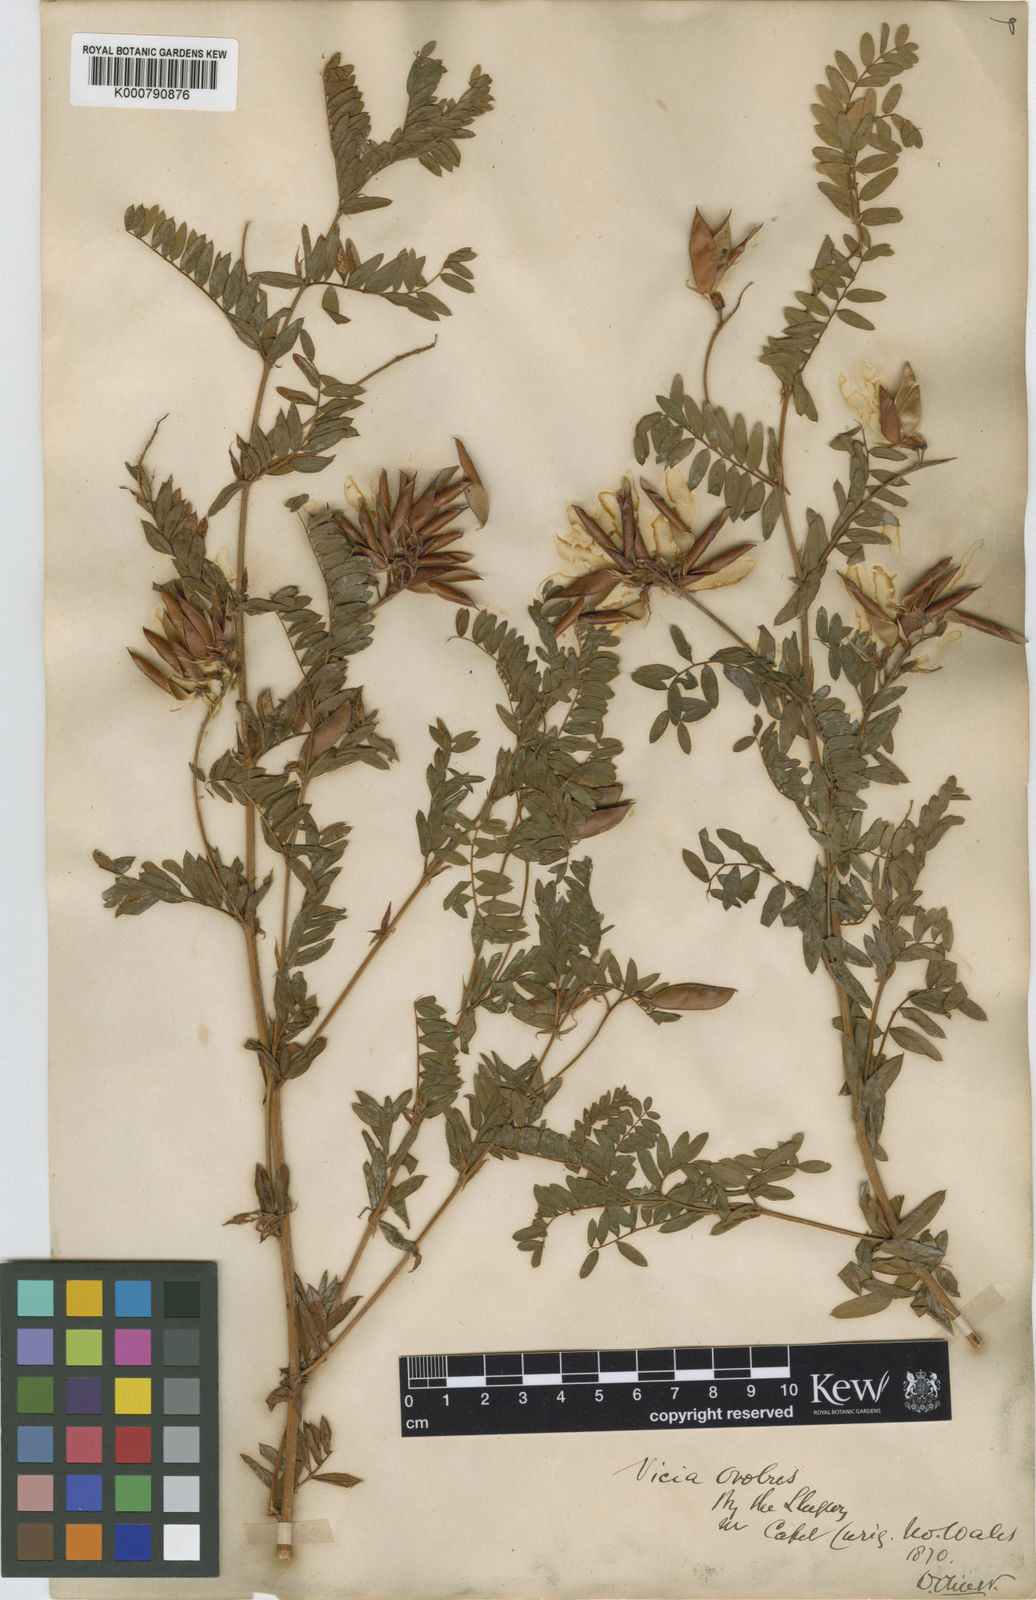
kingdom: Plantae
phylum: Tracheophyta
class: Magnoliopsida
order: Fabales
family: Fabaceae
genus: Vicia
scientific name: Vicia orobus
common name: Wood bitter-vetch
